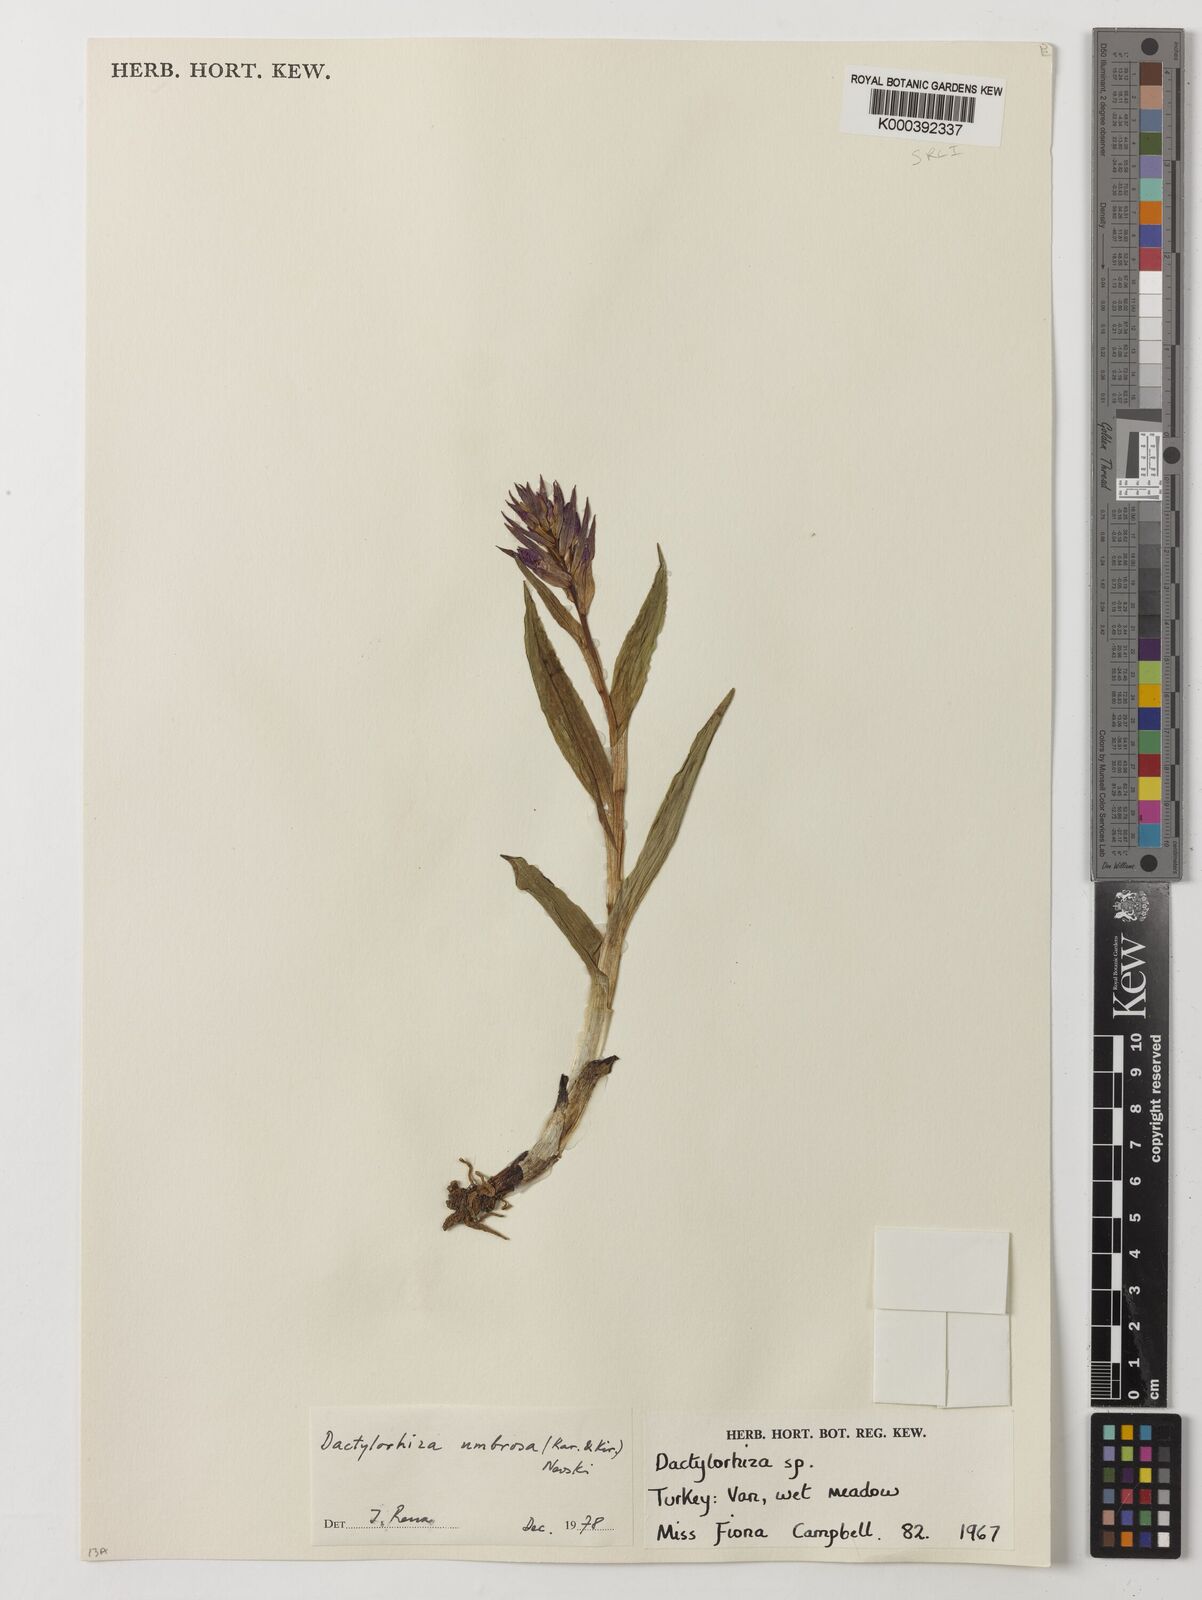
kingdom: Plantae
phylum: Tracheophyta
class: Liliopsida
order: Asparagales
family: Orchidaceae
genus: Dactylorhiza
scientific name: Dactylorhiza
